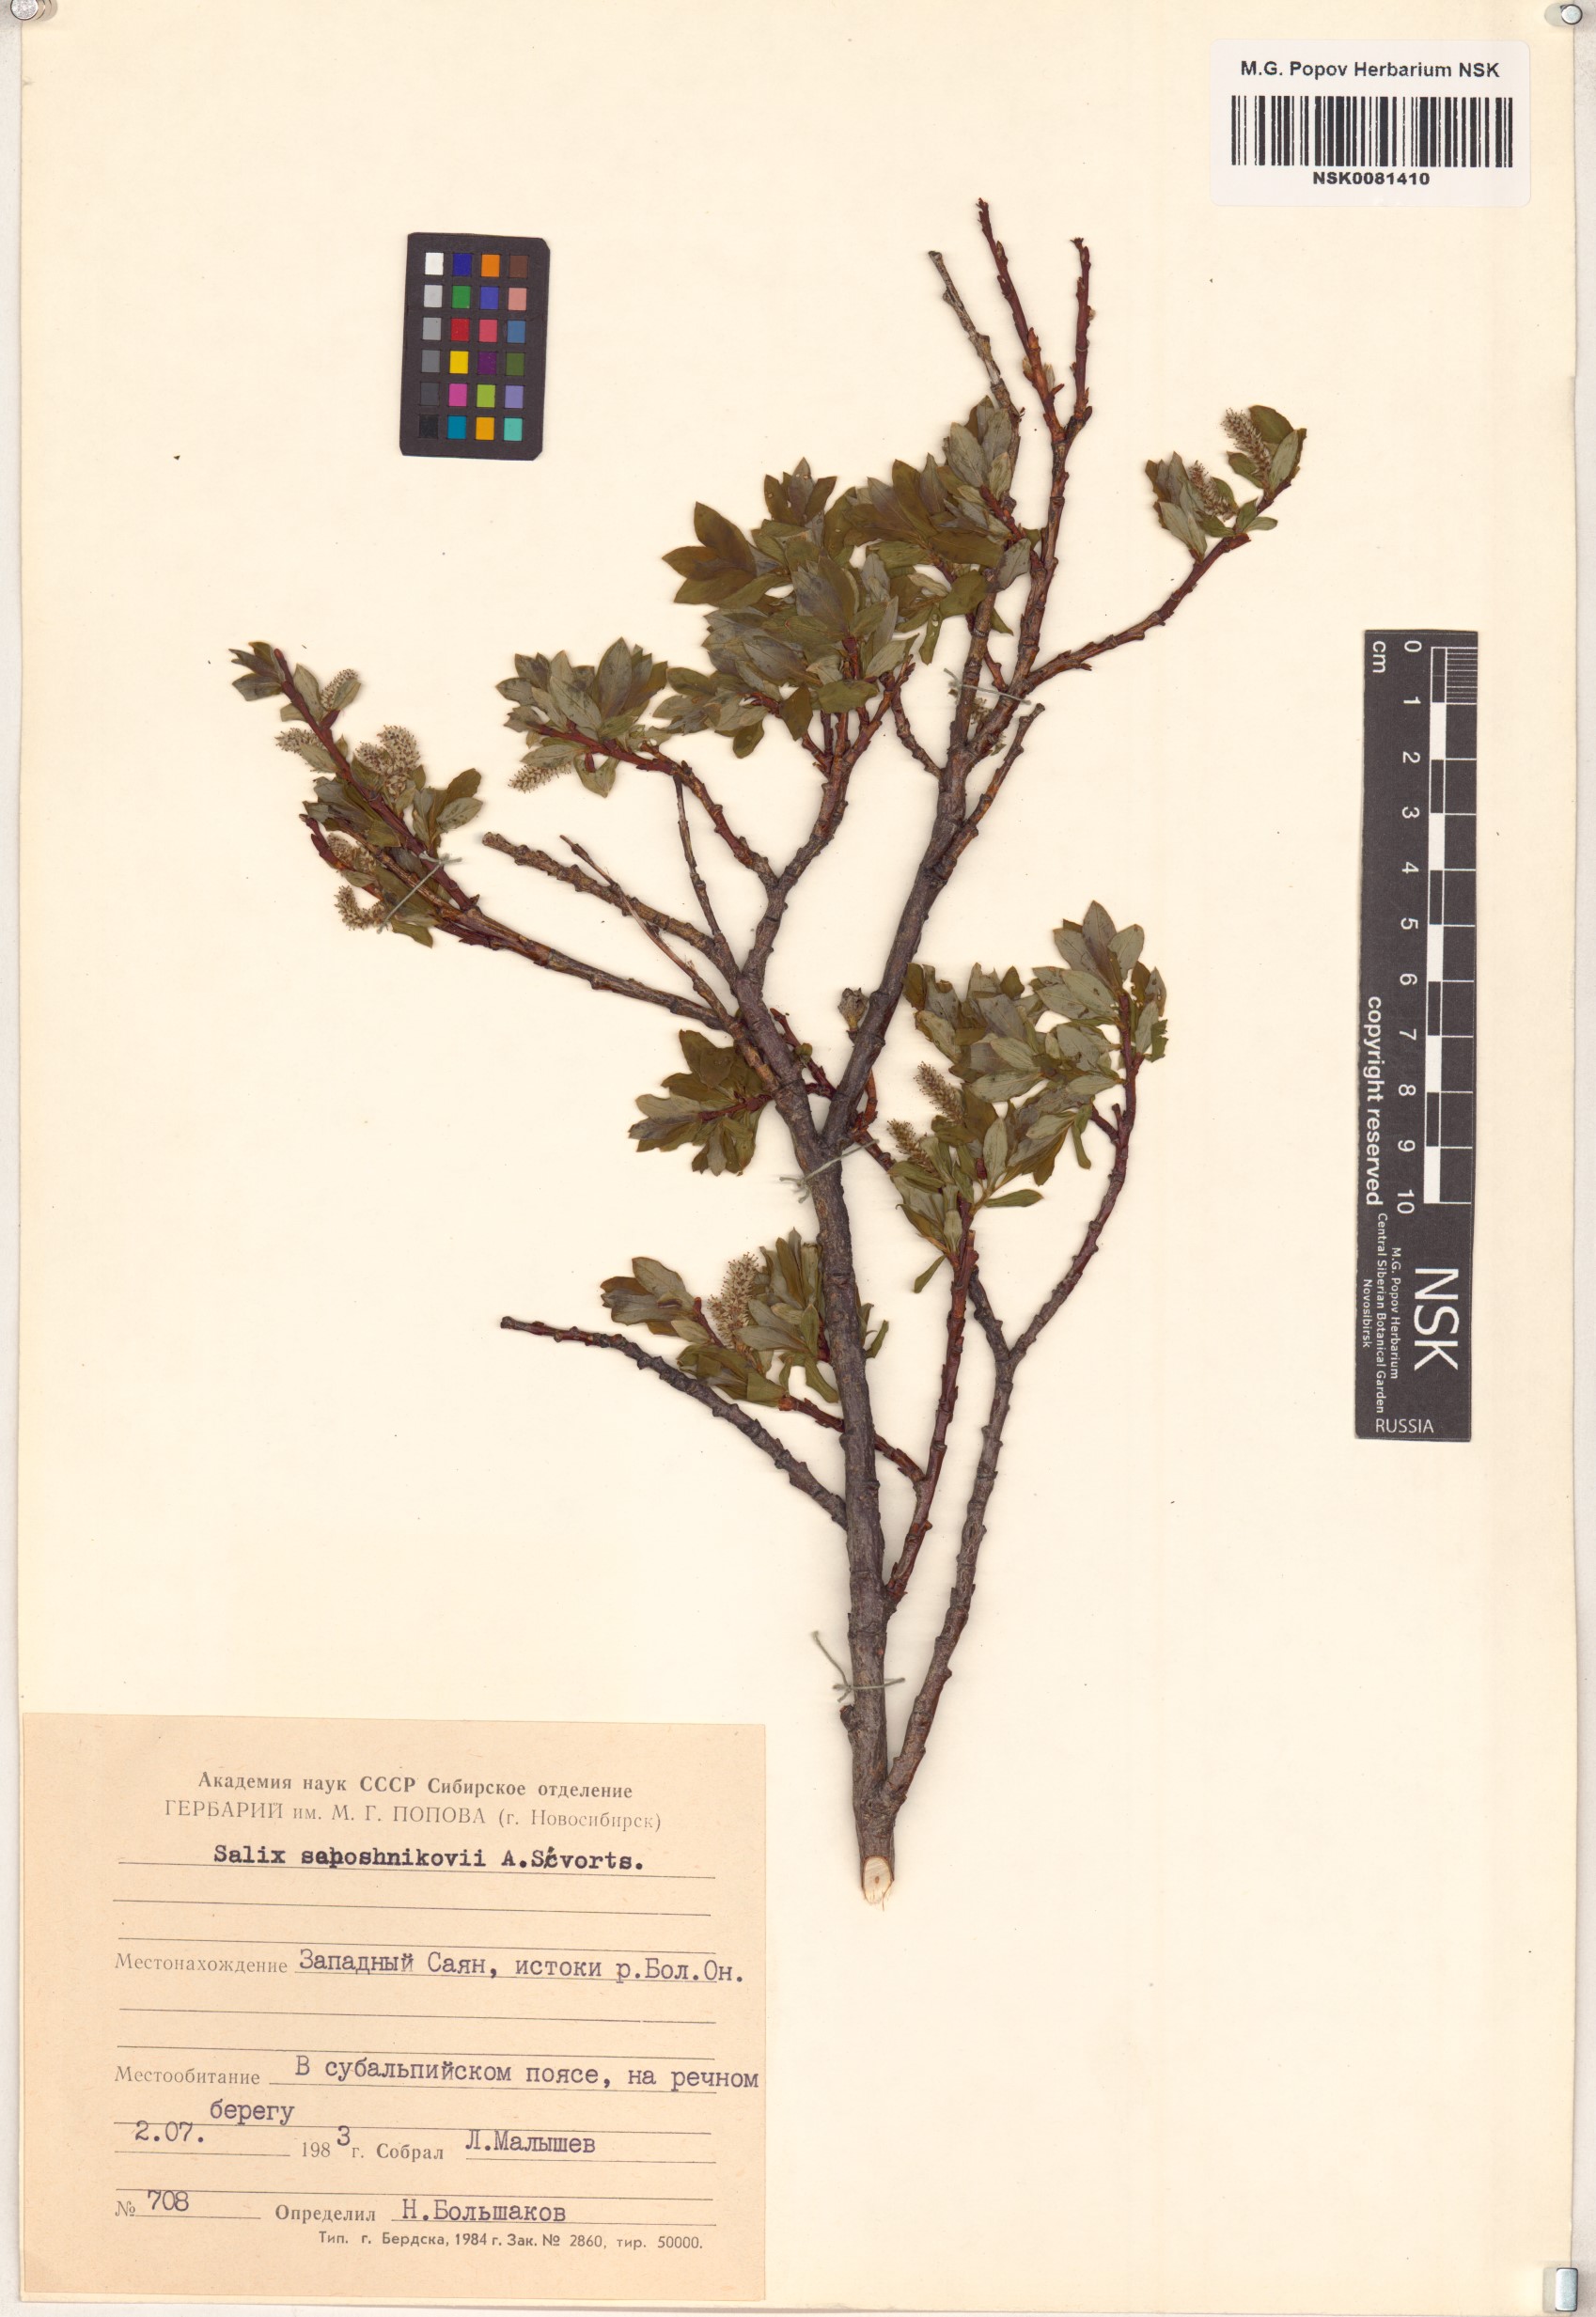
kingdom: Plantae
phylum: Tracheophyta
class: Magnoliopsida
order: Malpighiales
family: Salicaceae
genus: Salix
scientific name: Salix saposhnikovii
